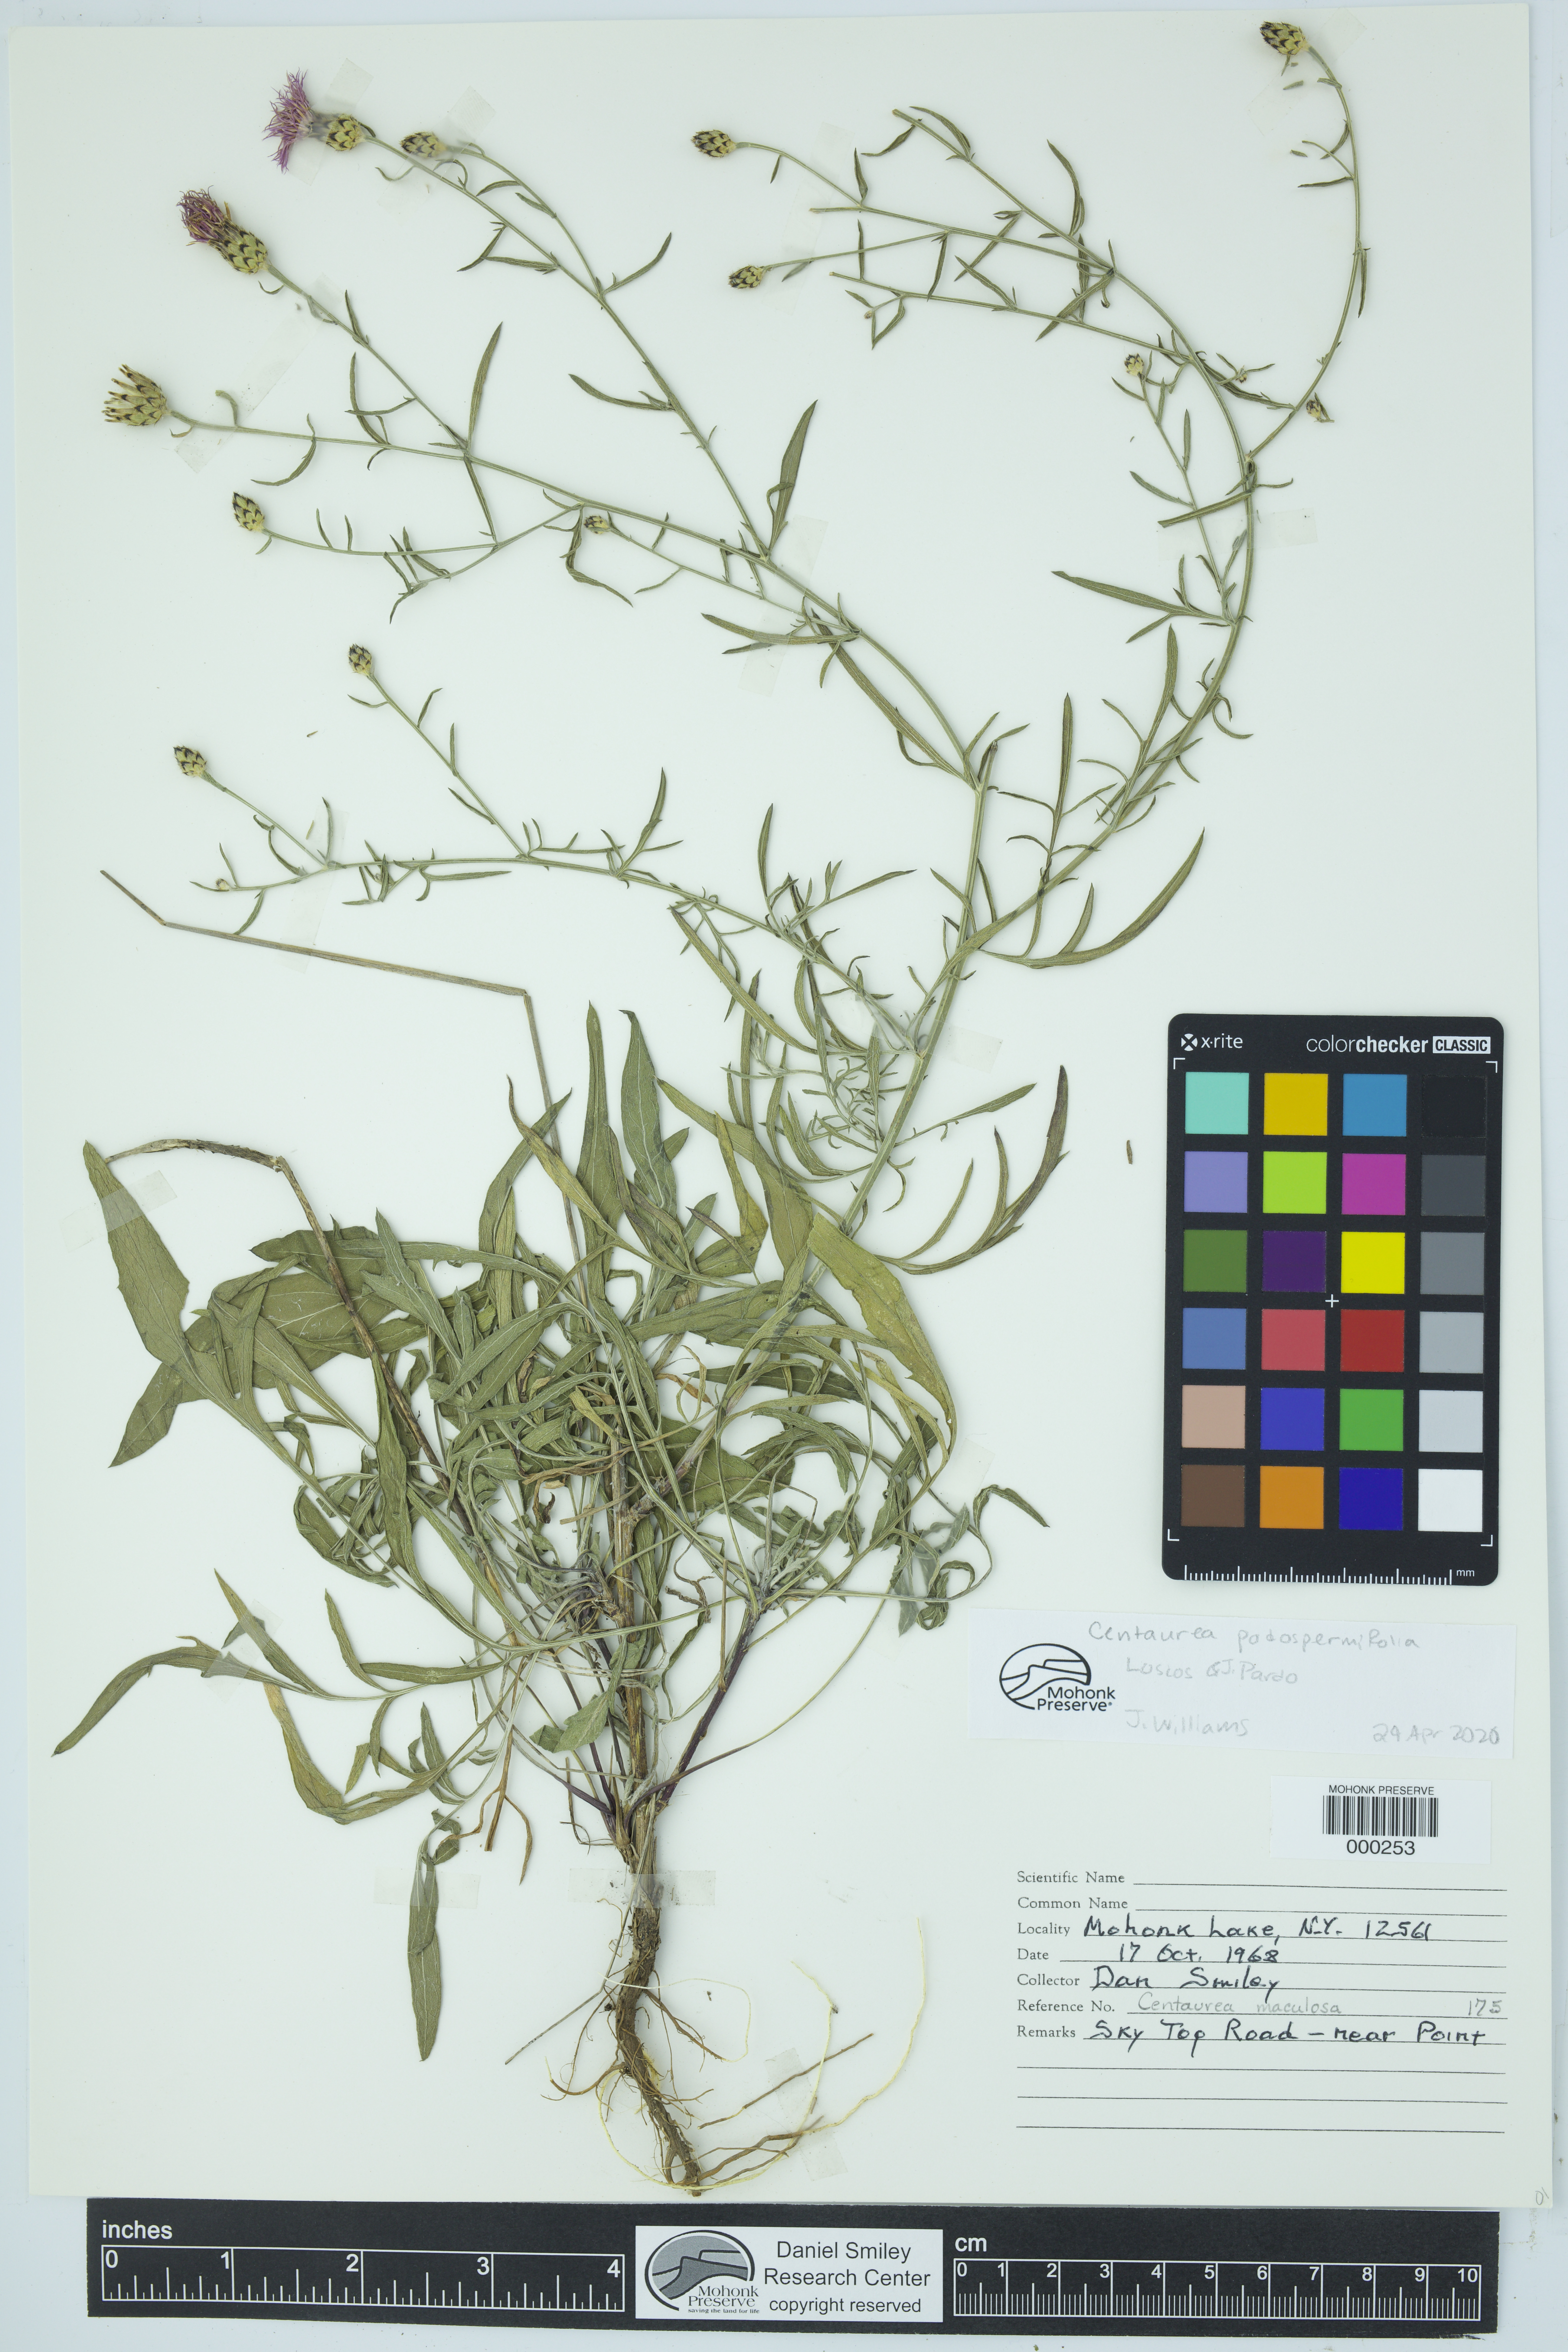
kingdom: Plantae
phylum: Tracheophyta
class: Magnoliopsida
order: Asterales
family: Asteraceae
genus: Centaurea
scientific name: Centaurea
